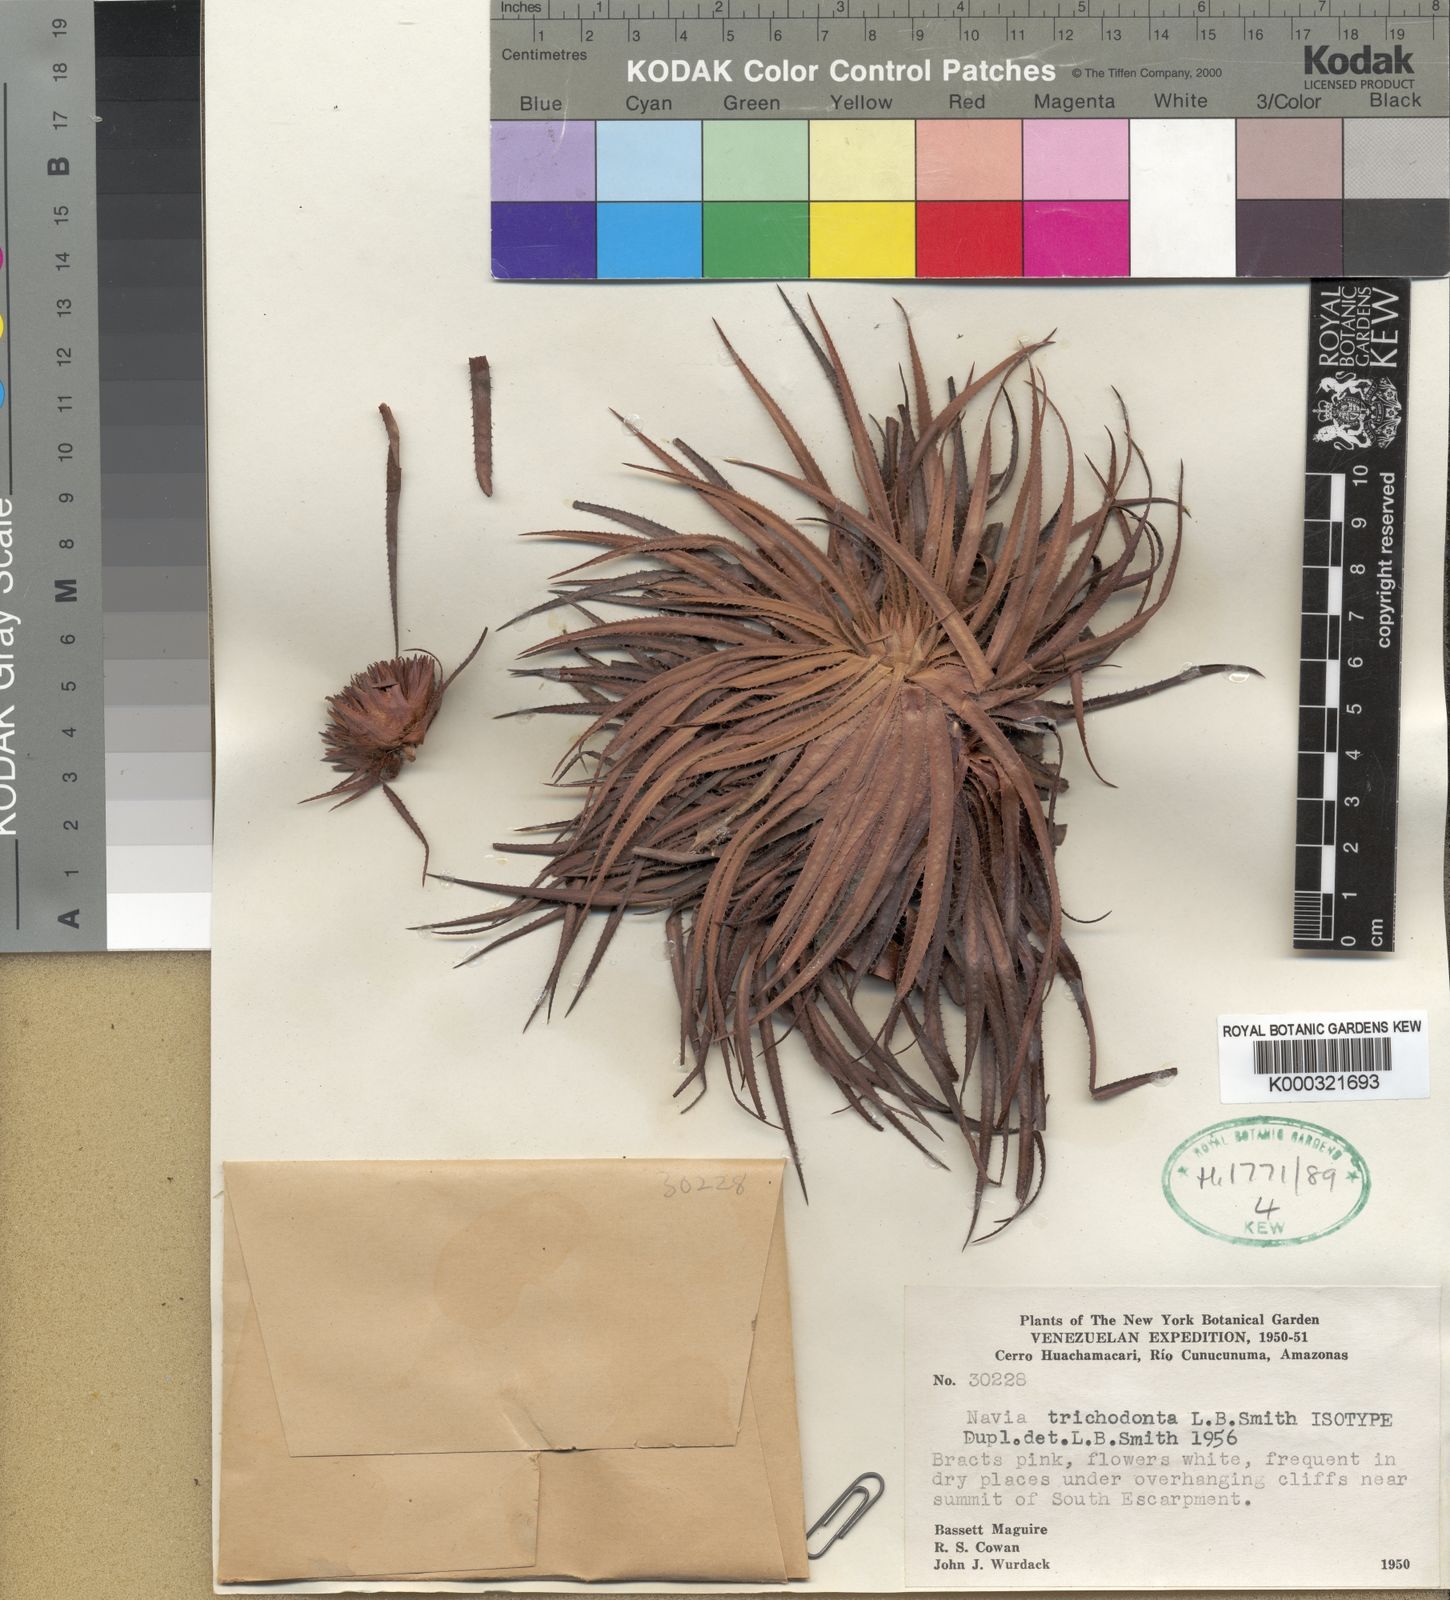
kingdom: Plantae
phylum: Tracheophyta
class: Liliopsida
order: Poales
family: Bromeliaceae
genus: Navia
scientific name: Navia trichodonta
